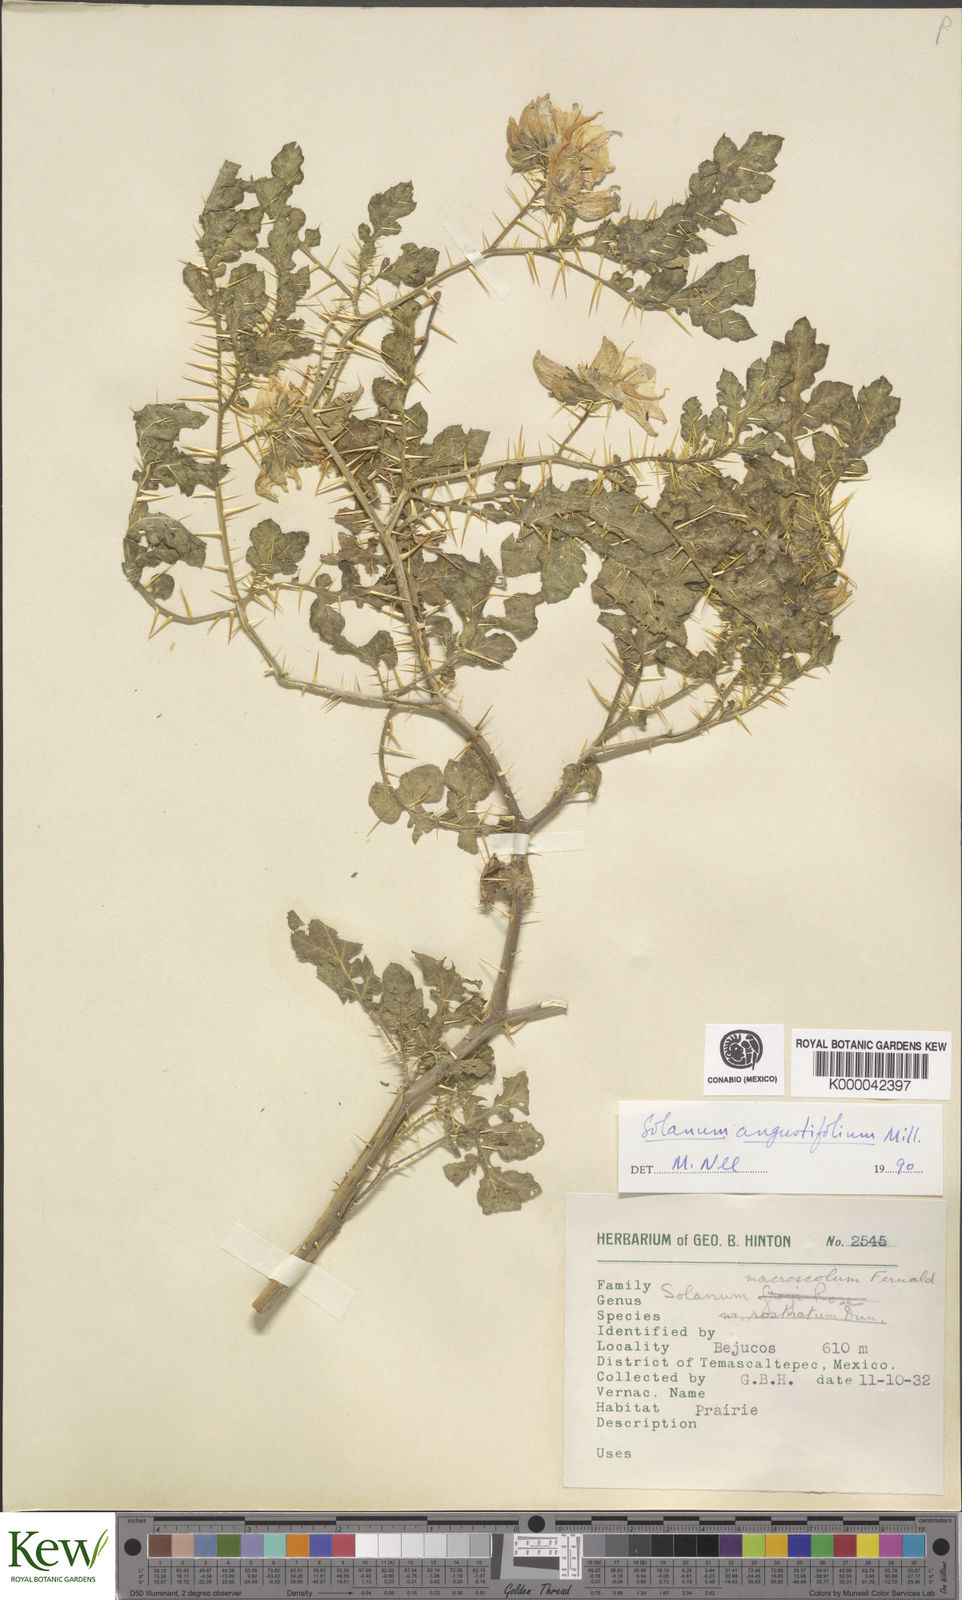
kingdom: Plantae
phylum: Tracheophyta
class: Magnoliopsida
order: Solanales
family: Solanaceae
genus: Solanum
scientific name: Solanum angustifolium
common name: Buffalobur nightshade
